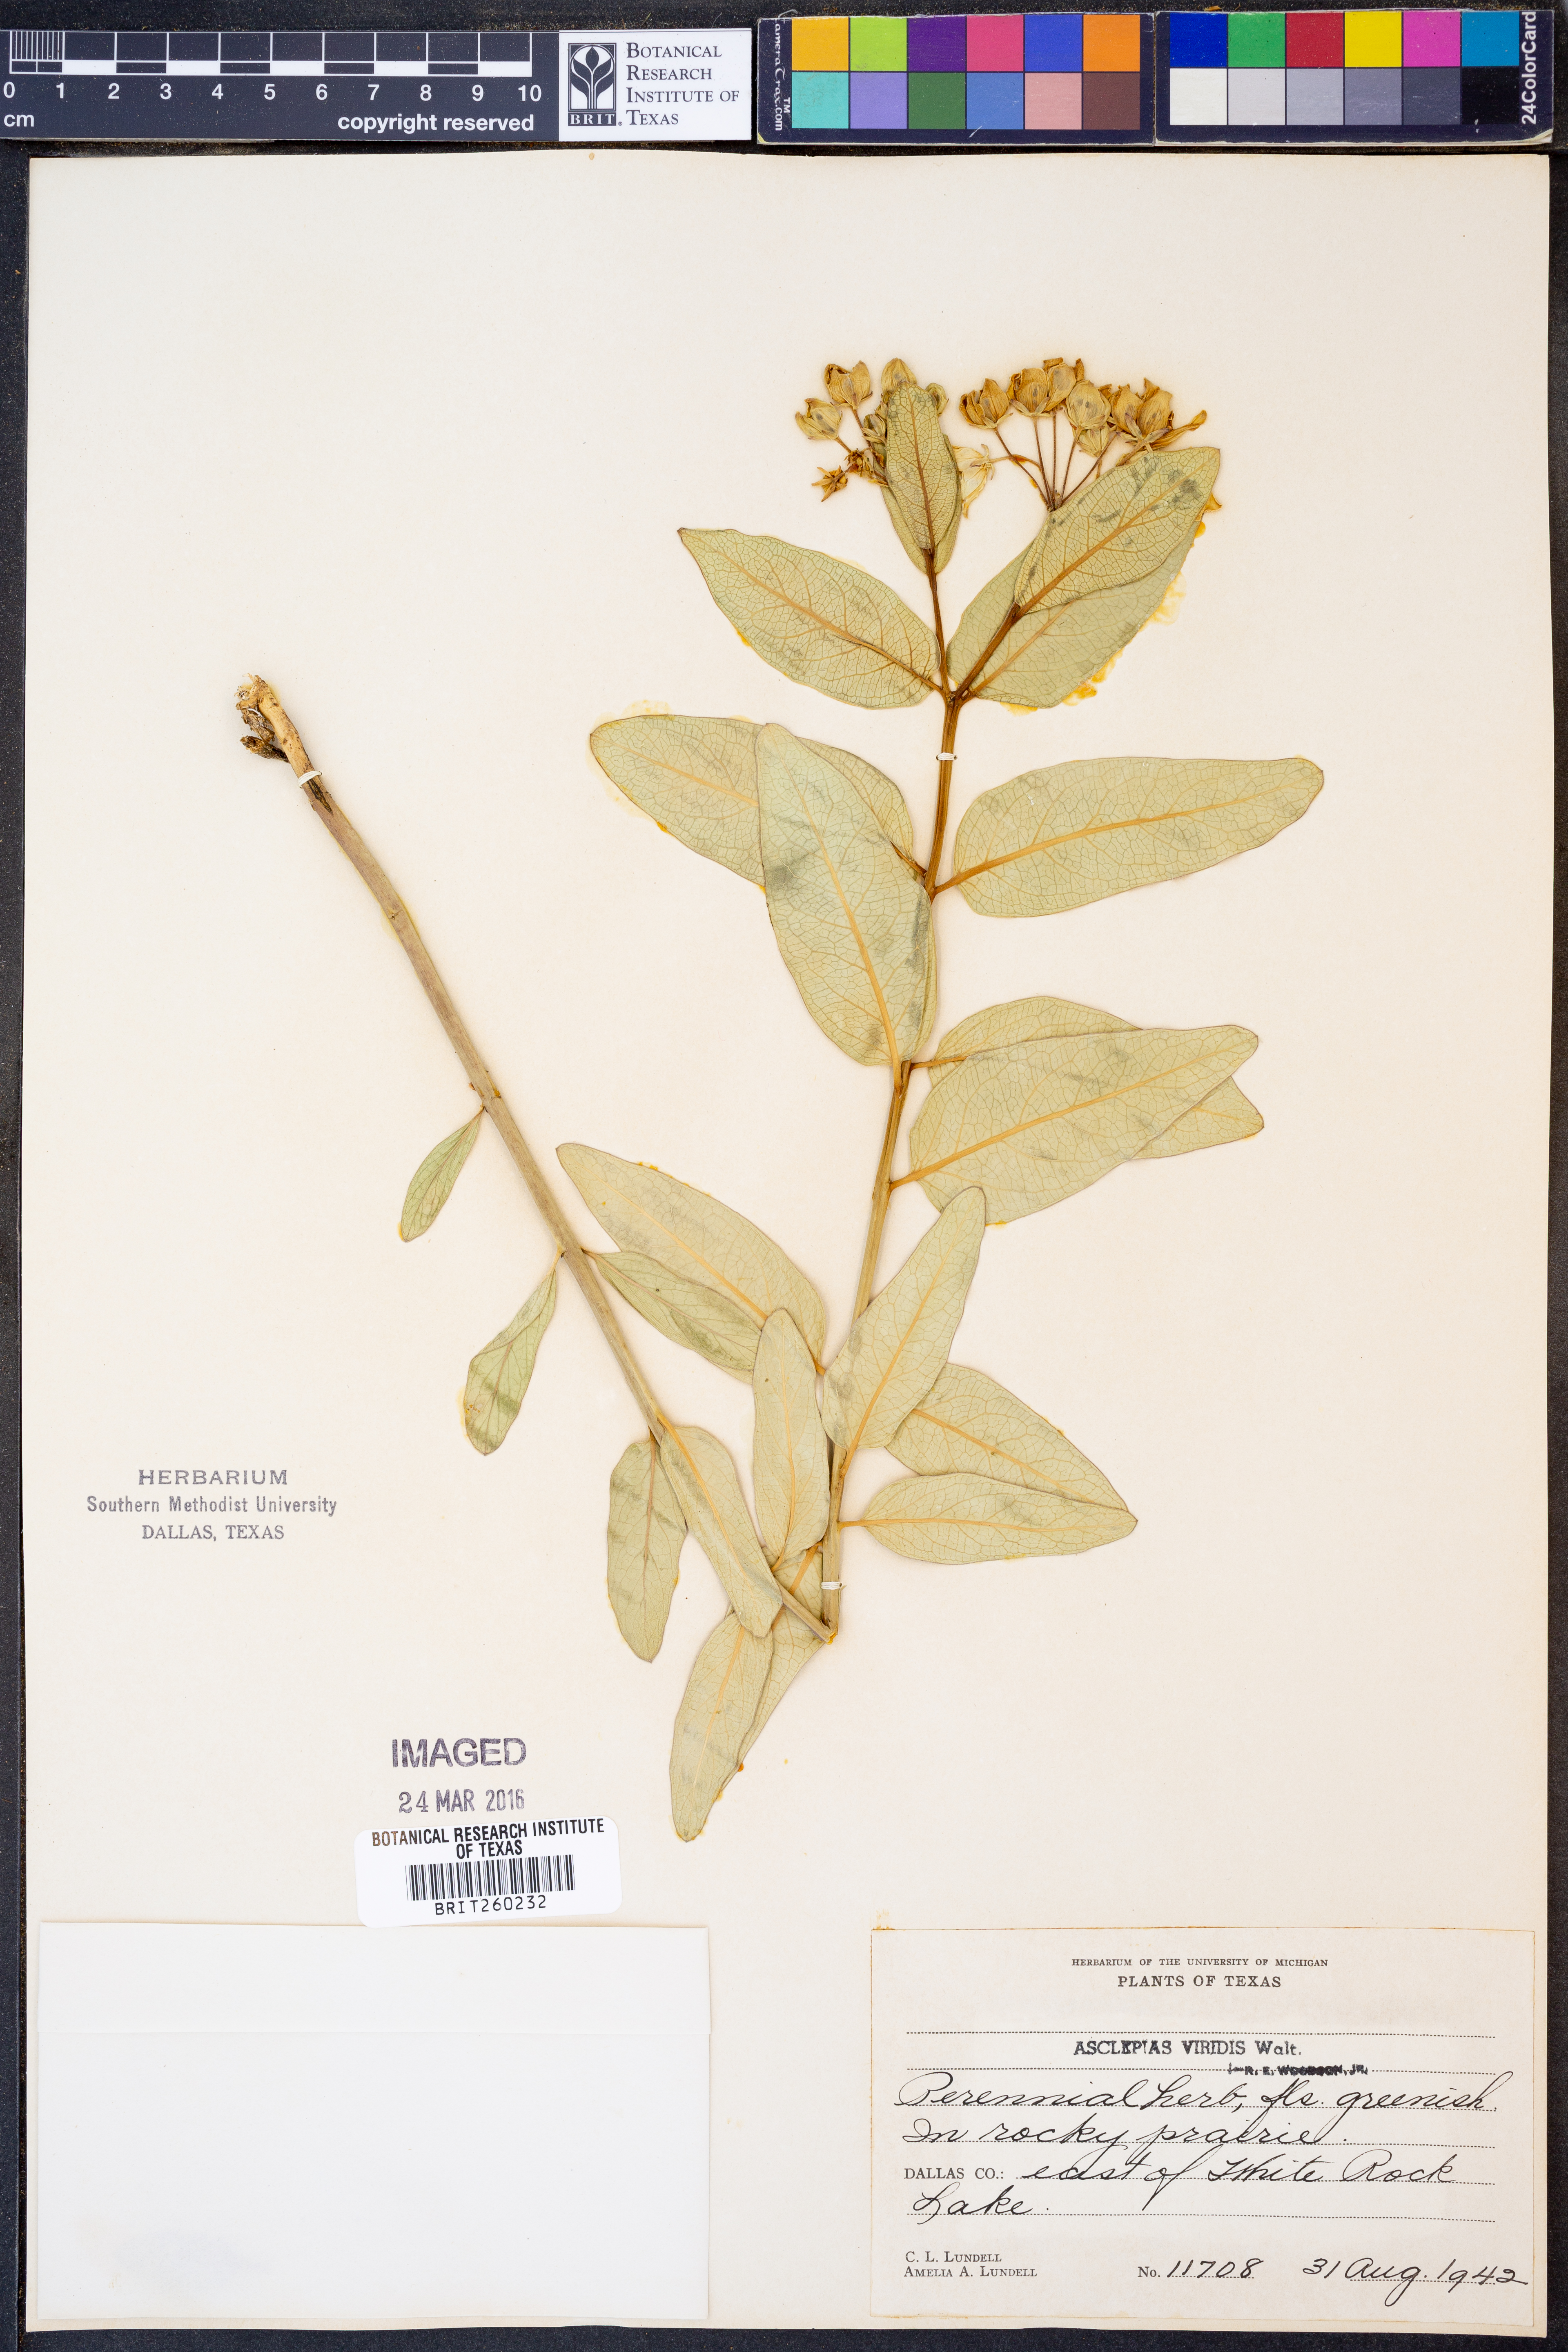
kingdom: Plantae
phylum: Tracheophyta
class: Magnoliopsida
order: Gentianales
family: Apocynaceae
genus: Asclepias
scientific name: Asclepias viridis
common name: Antelope-horns
